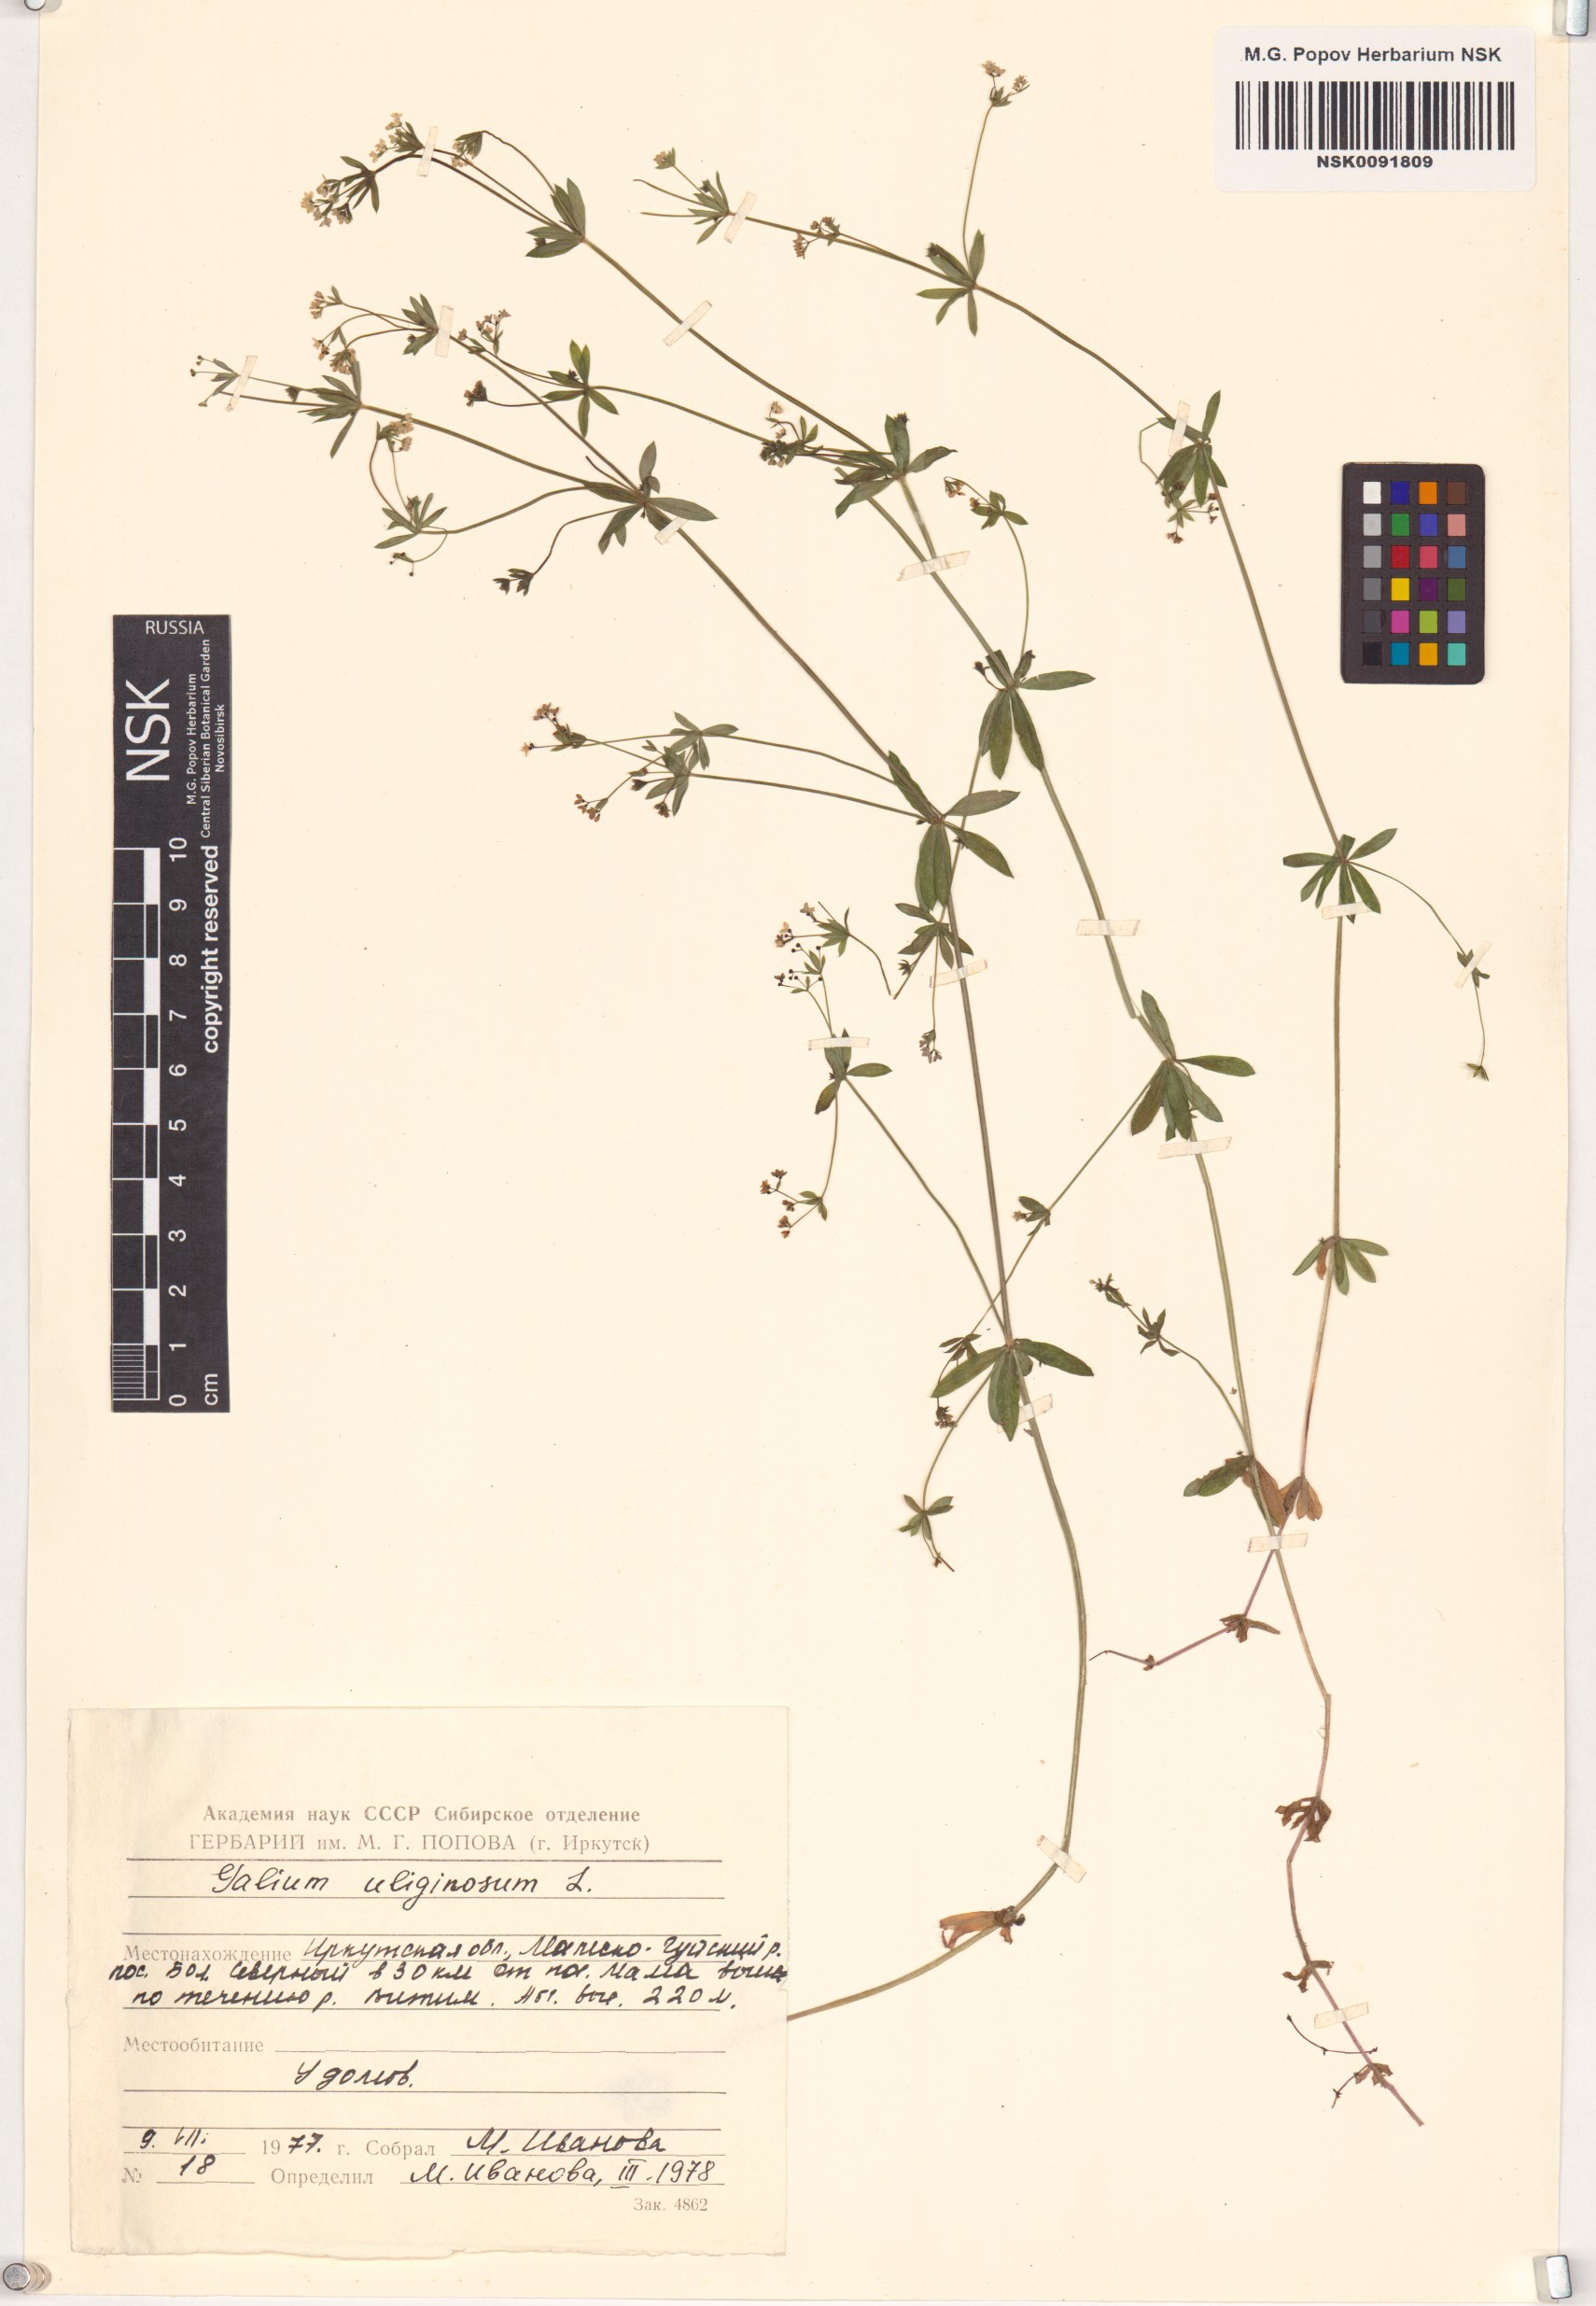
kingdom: Plantae
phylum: Tracheophyta
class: Magnoliopsida
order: Gentianales
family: Rubiaceae
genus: Galium
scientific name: Galium uliginosum
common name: Fen bedstraw
